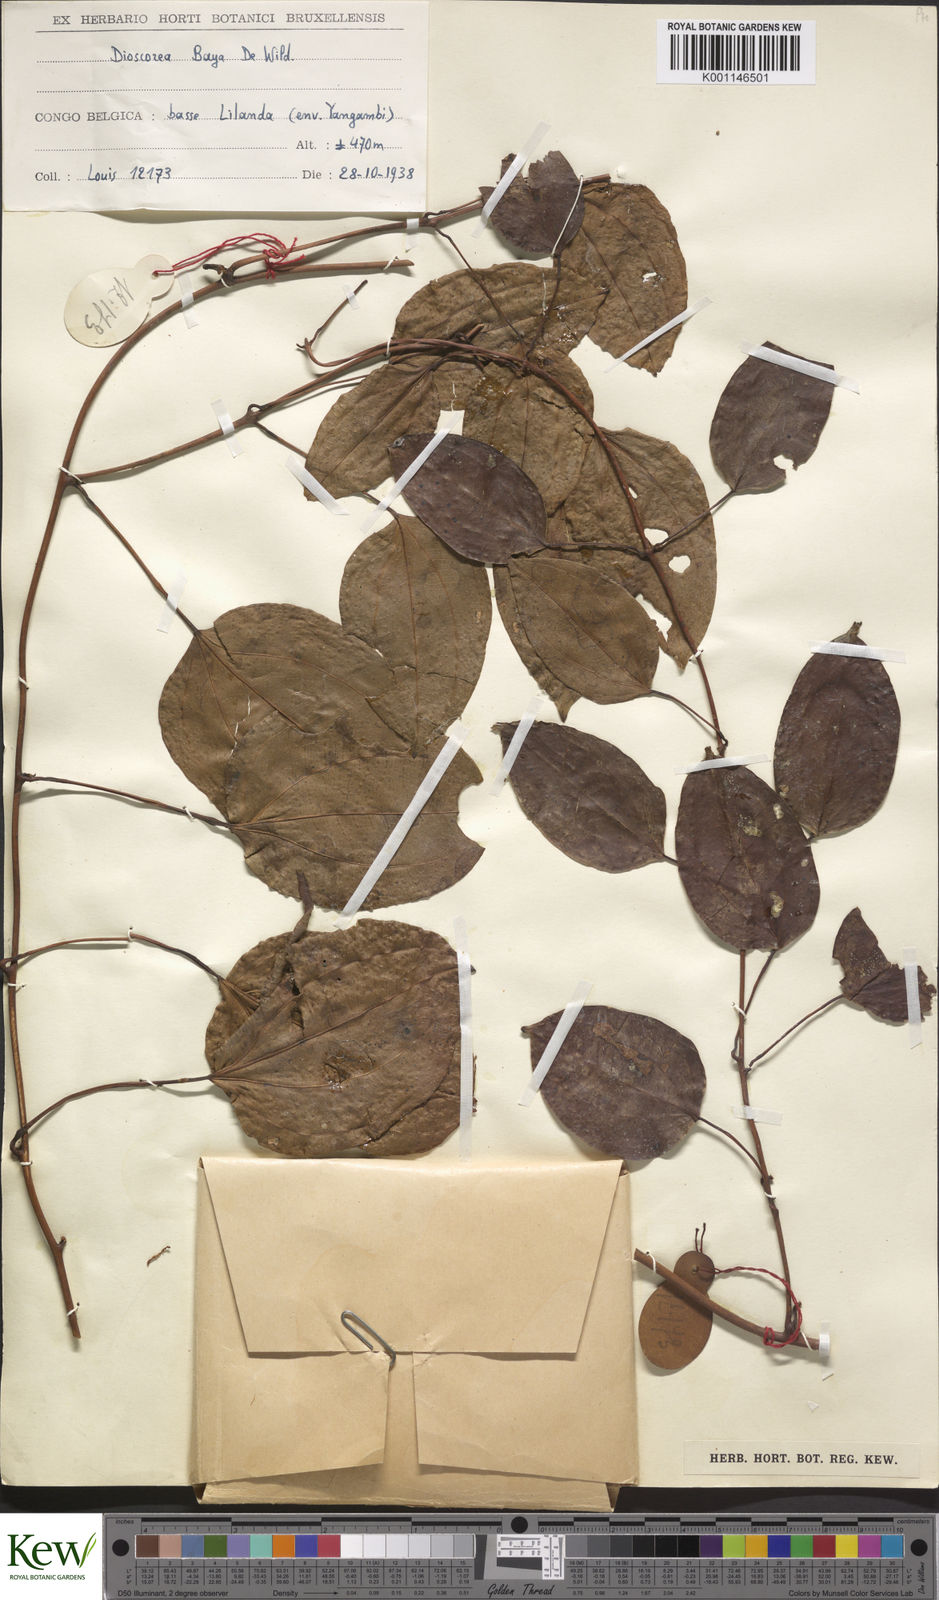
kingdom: Plantae
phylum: Tracheophyta
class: Liliopsida
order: Dioscoreales
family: Dioscoreaceae
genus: Dioscorea
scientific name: Dioscorea baya
